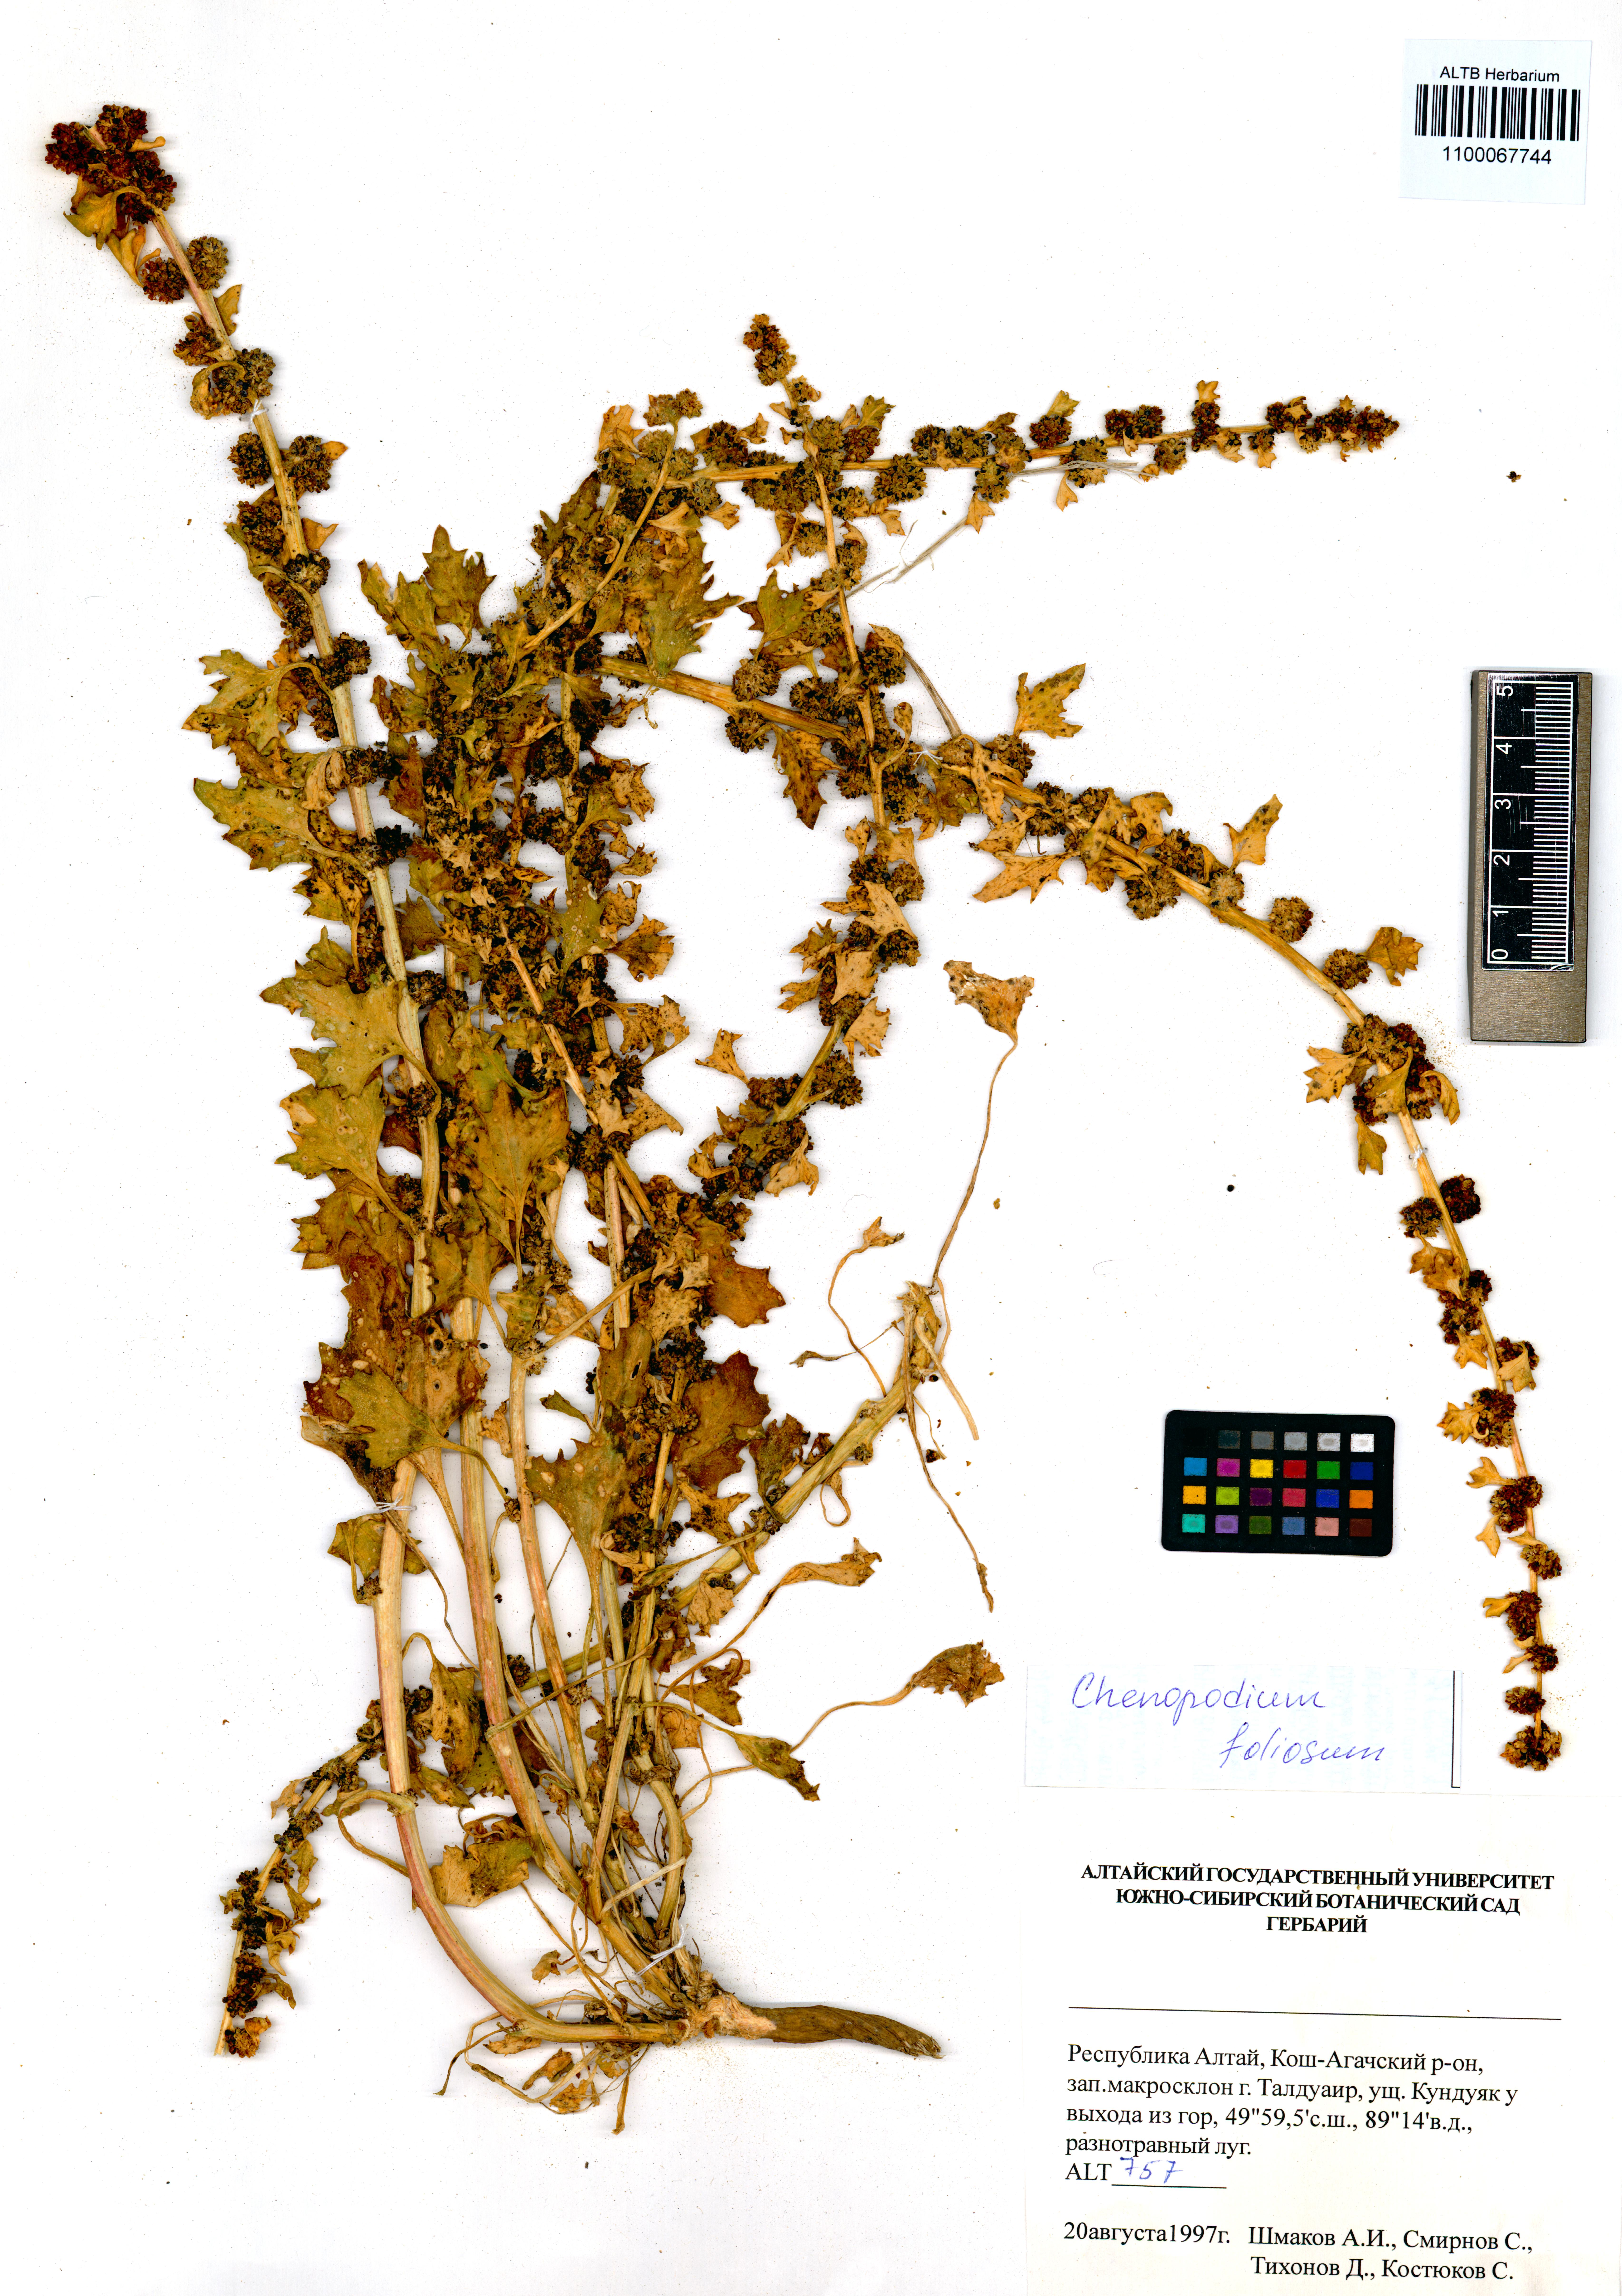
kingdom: Plantae
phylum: Tracheophyta
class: Magnoliopsida
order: Caryophyllales
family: Amaranthaceae
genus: Blitum
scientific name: Blitum virgatum
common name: Strawberry goosefoot
